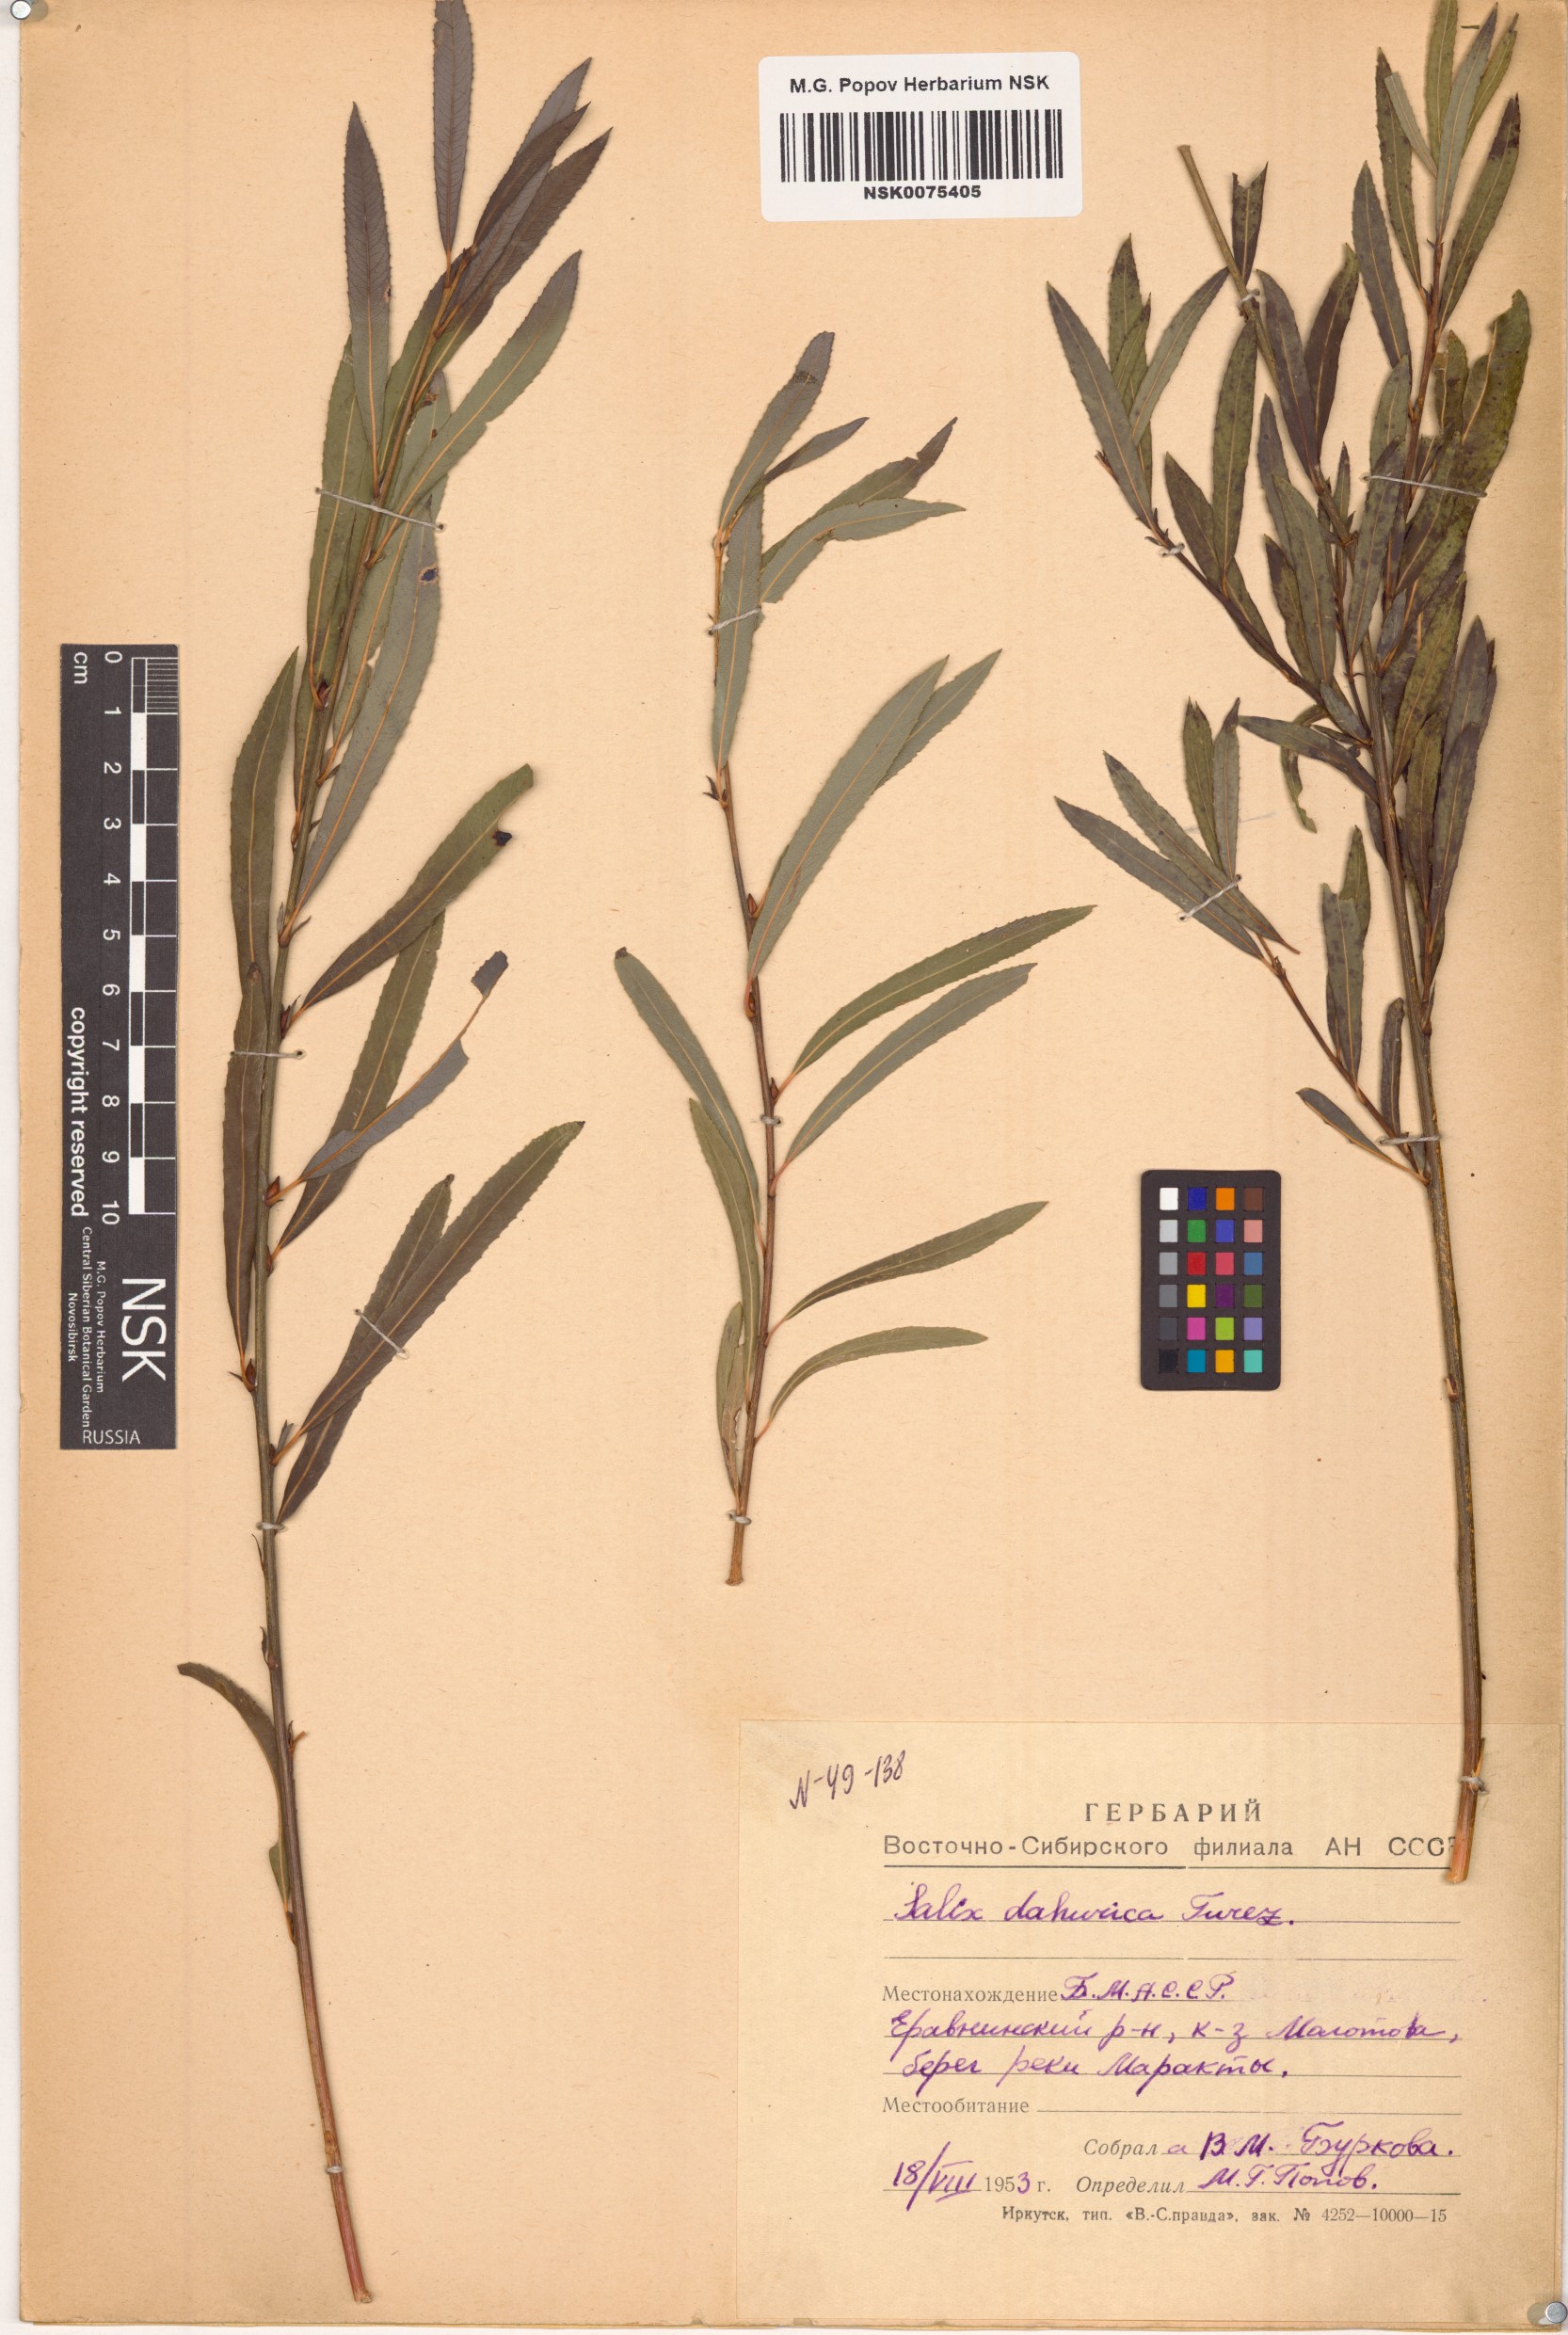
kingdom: Plantae
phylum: Tracheophyta
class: Magnoliopsida
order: Malpighiales
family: Salicaceae
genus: Salix
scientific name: Salix
